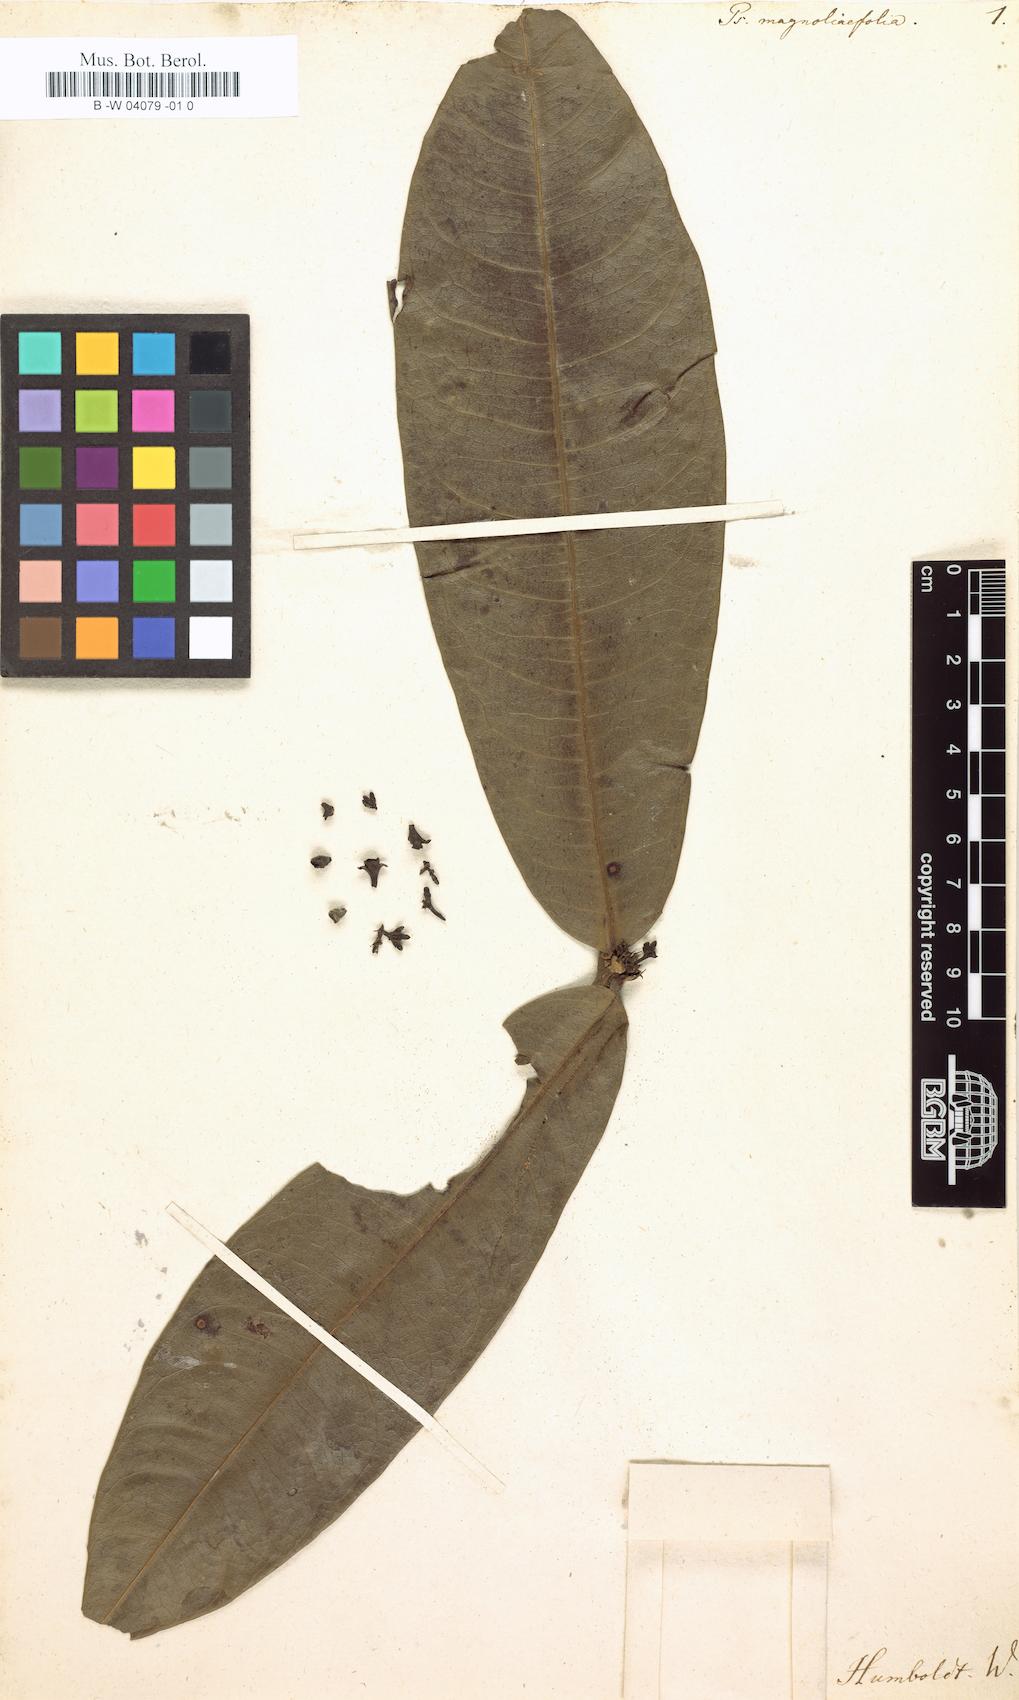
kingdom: Plantae
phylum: Tracheophyta
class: Magnoliopsida
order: Gentianales
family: Rubiaceae
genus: Psychotria
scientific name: Psychotria guianensis
